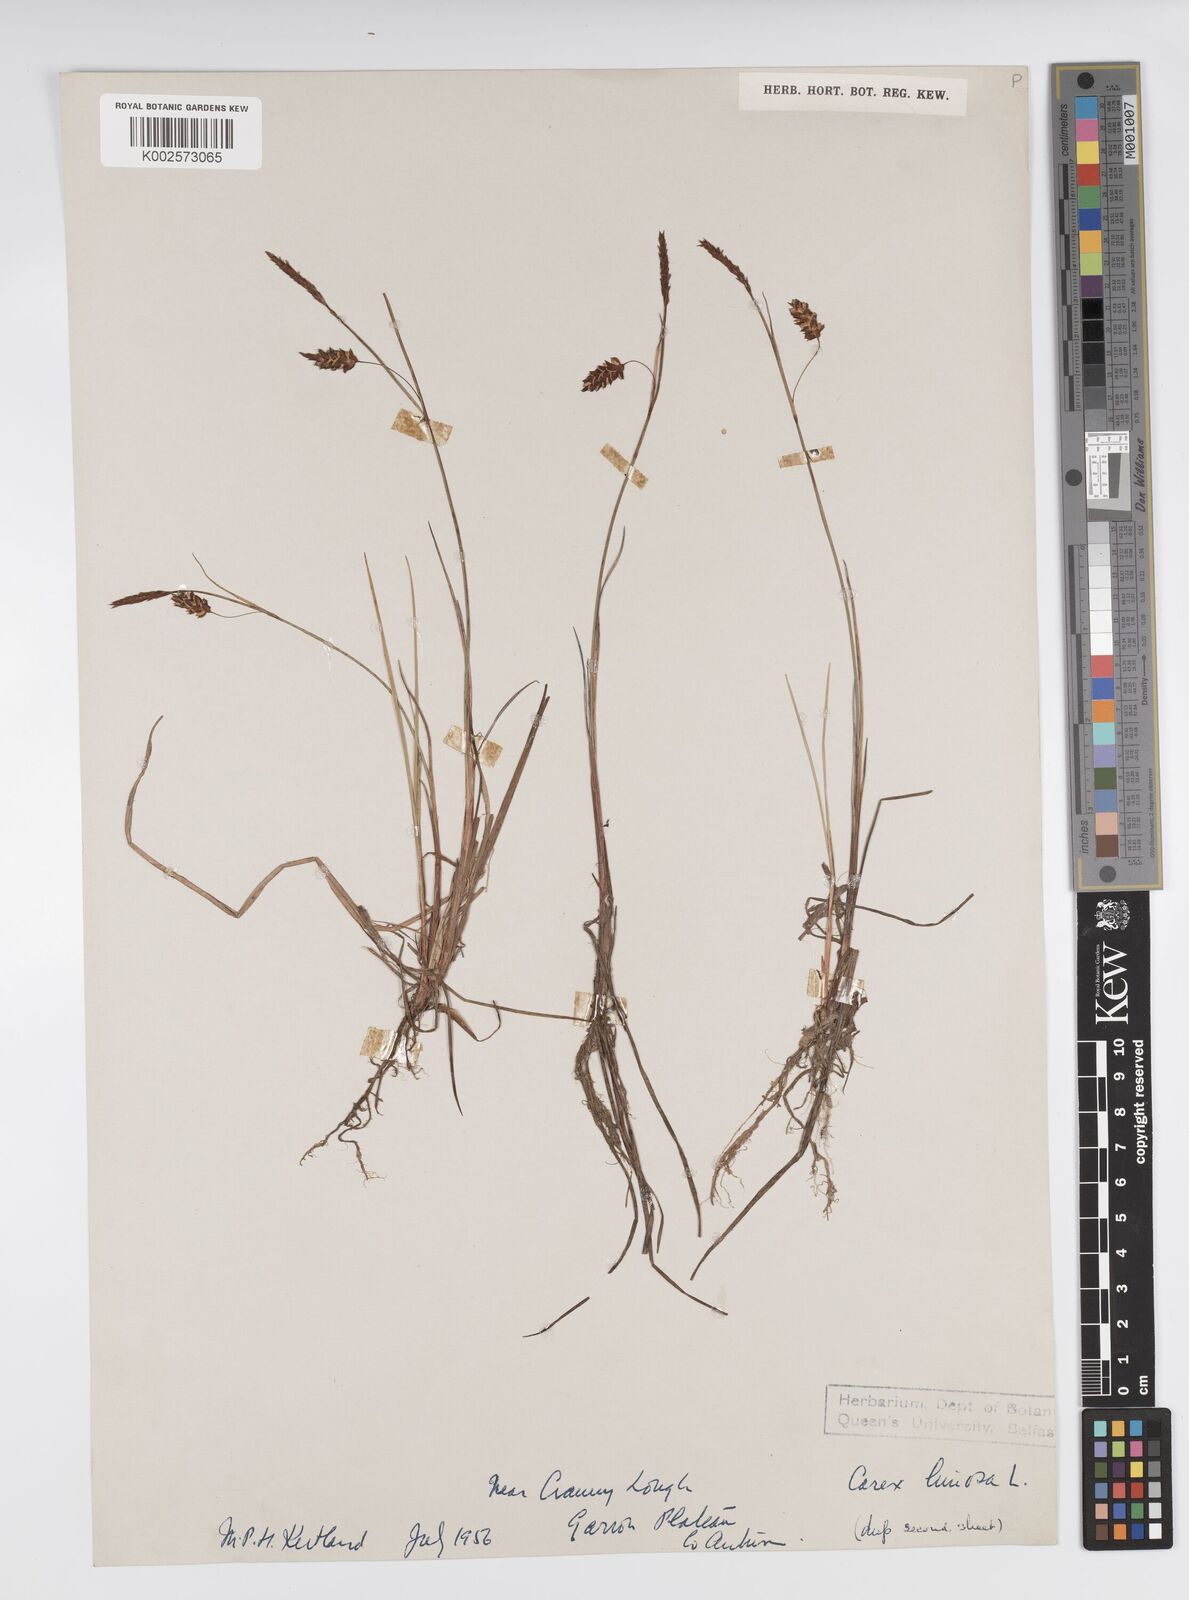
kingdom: Plantae
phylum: Tracheophyta
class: Liliopsida
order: Poales
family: Cyperaceae
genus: Carex
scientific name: Carex limosa
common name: Bog sedge
